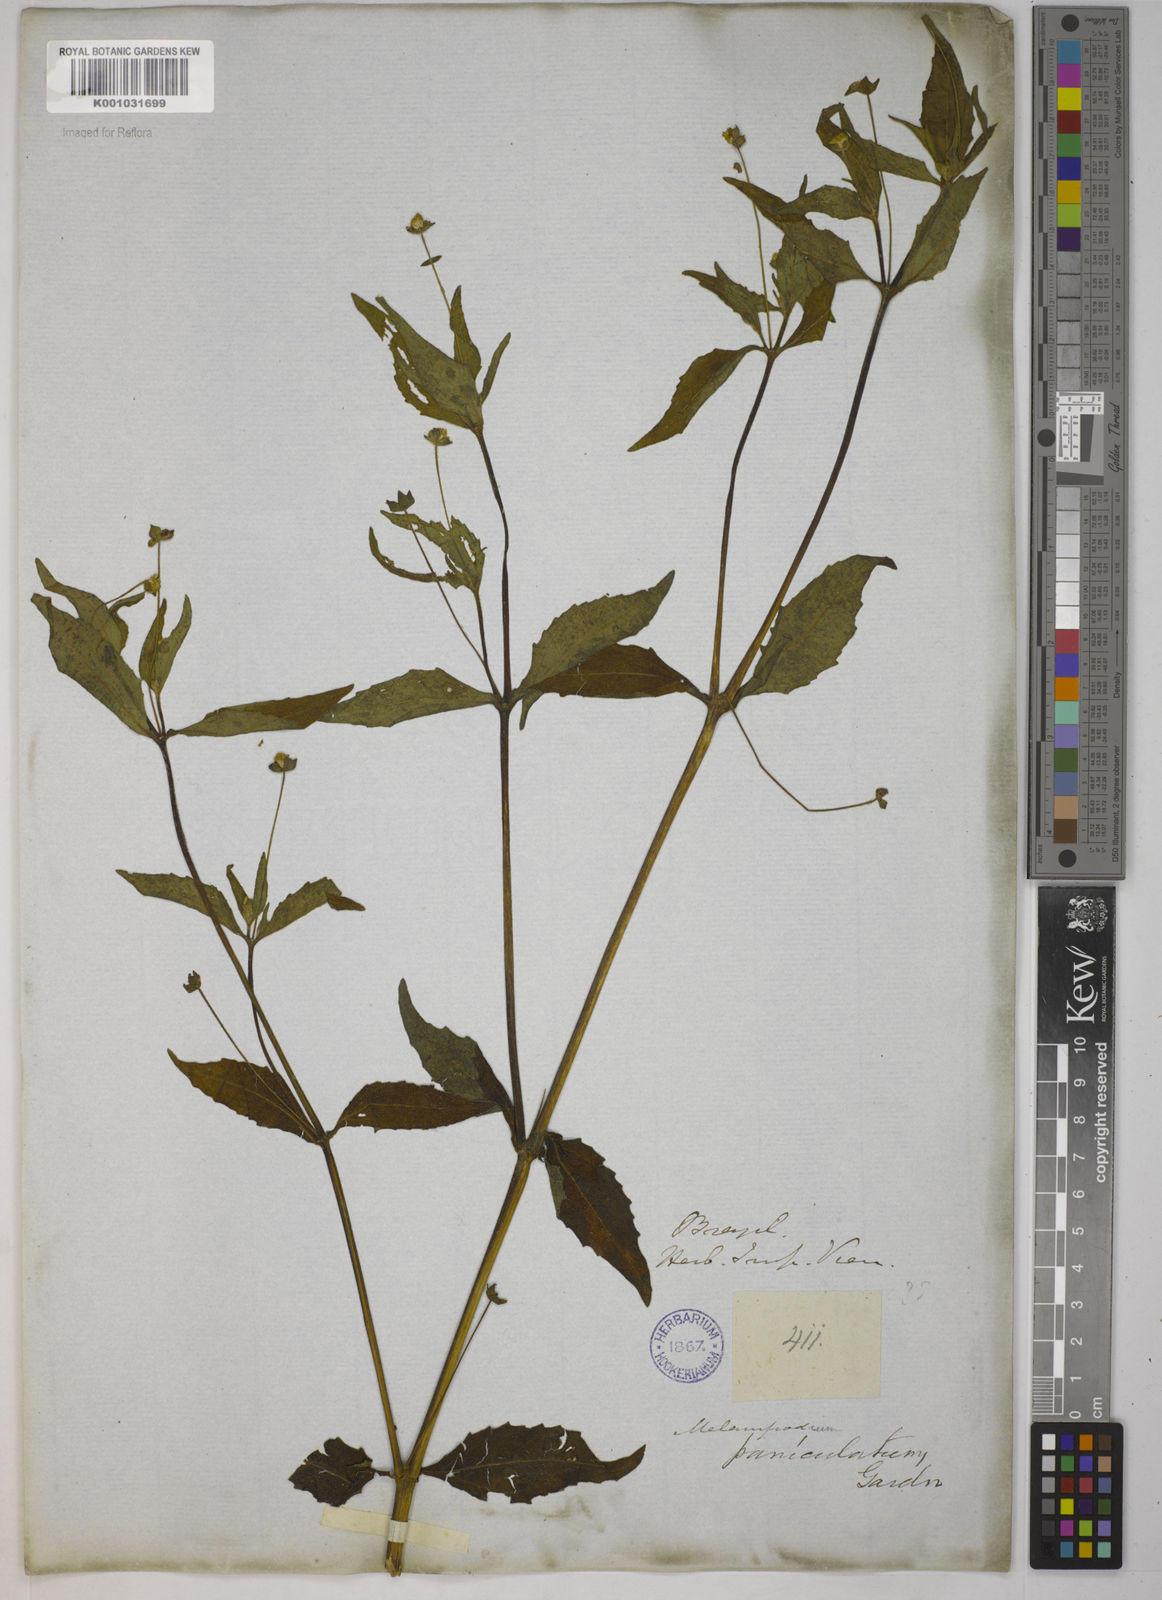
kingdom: Plantae
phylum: Tracheophyta
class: Magnoliopsida
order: Asterales
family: Asteraceae
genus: Melampodium
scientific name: Melampodium paniculatum
